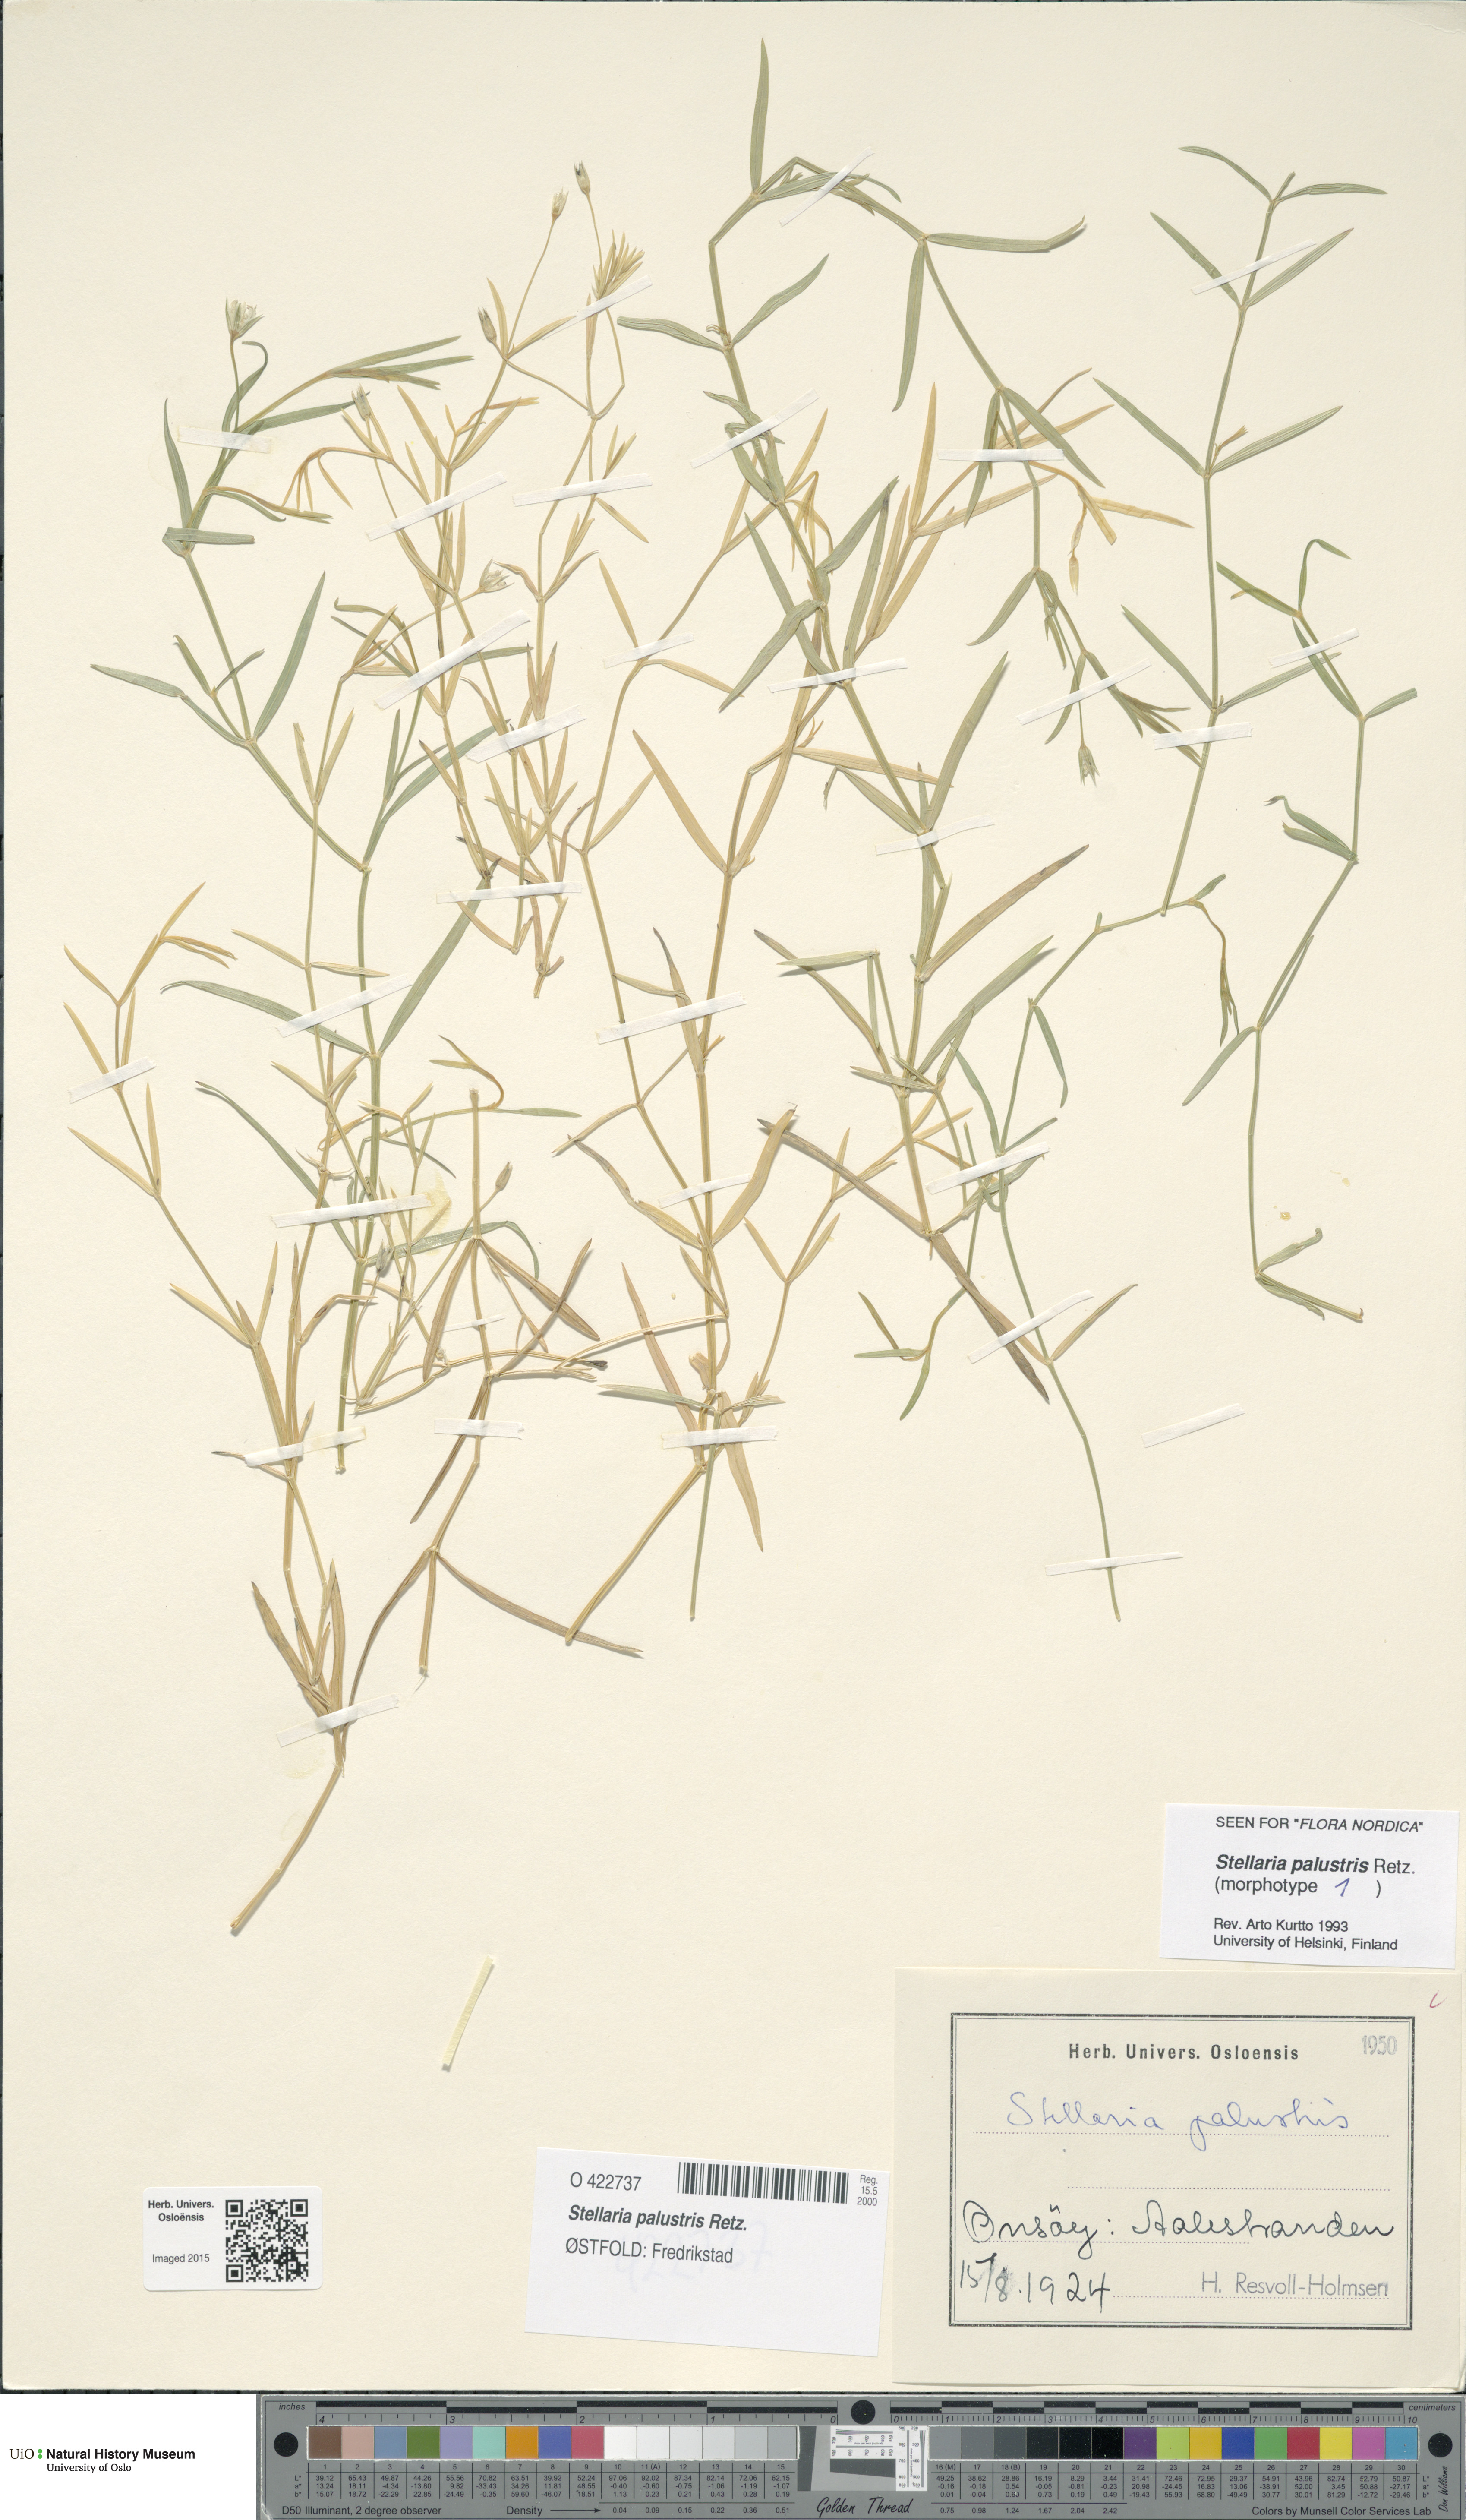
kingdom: Plantae
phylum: Tracheophyta
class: Magnoliopsida
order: Caryophyllales
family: Caryophyllaceae
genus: Stellaria
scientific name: Stellaria palustris
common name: Marsh stitchwort
